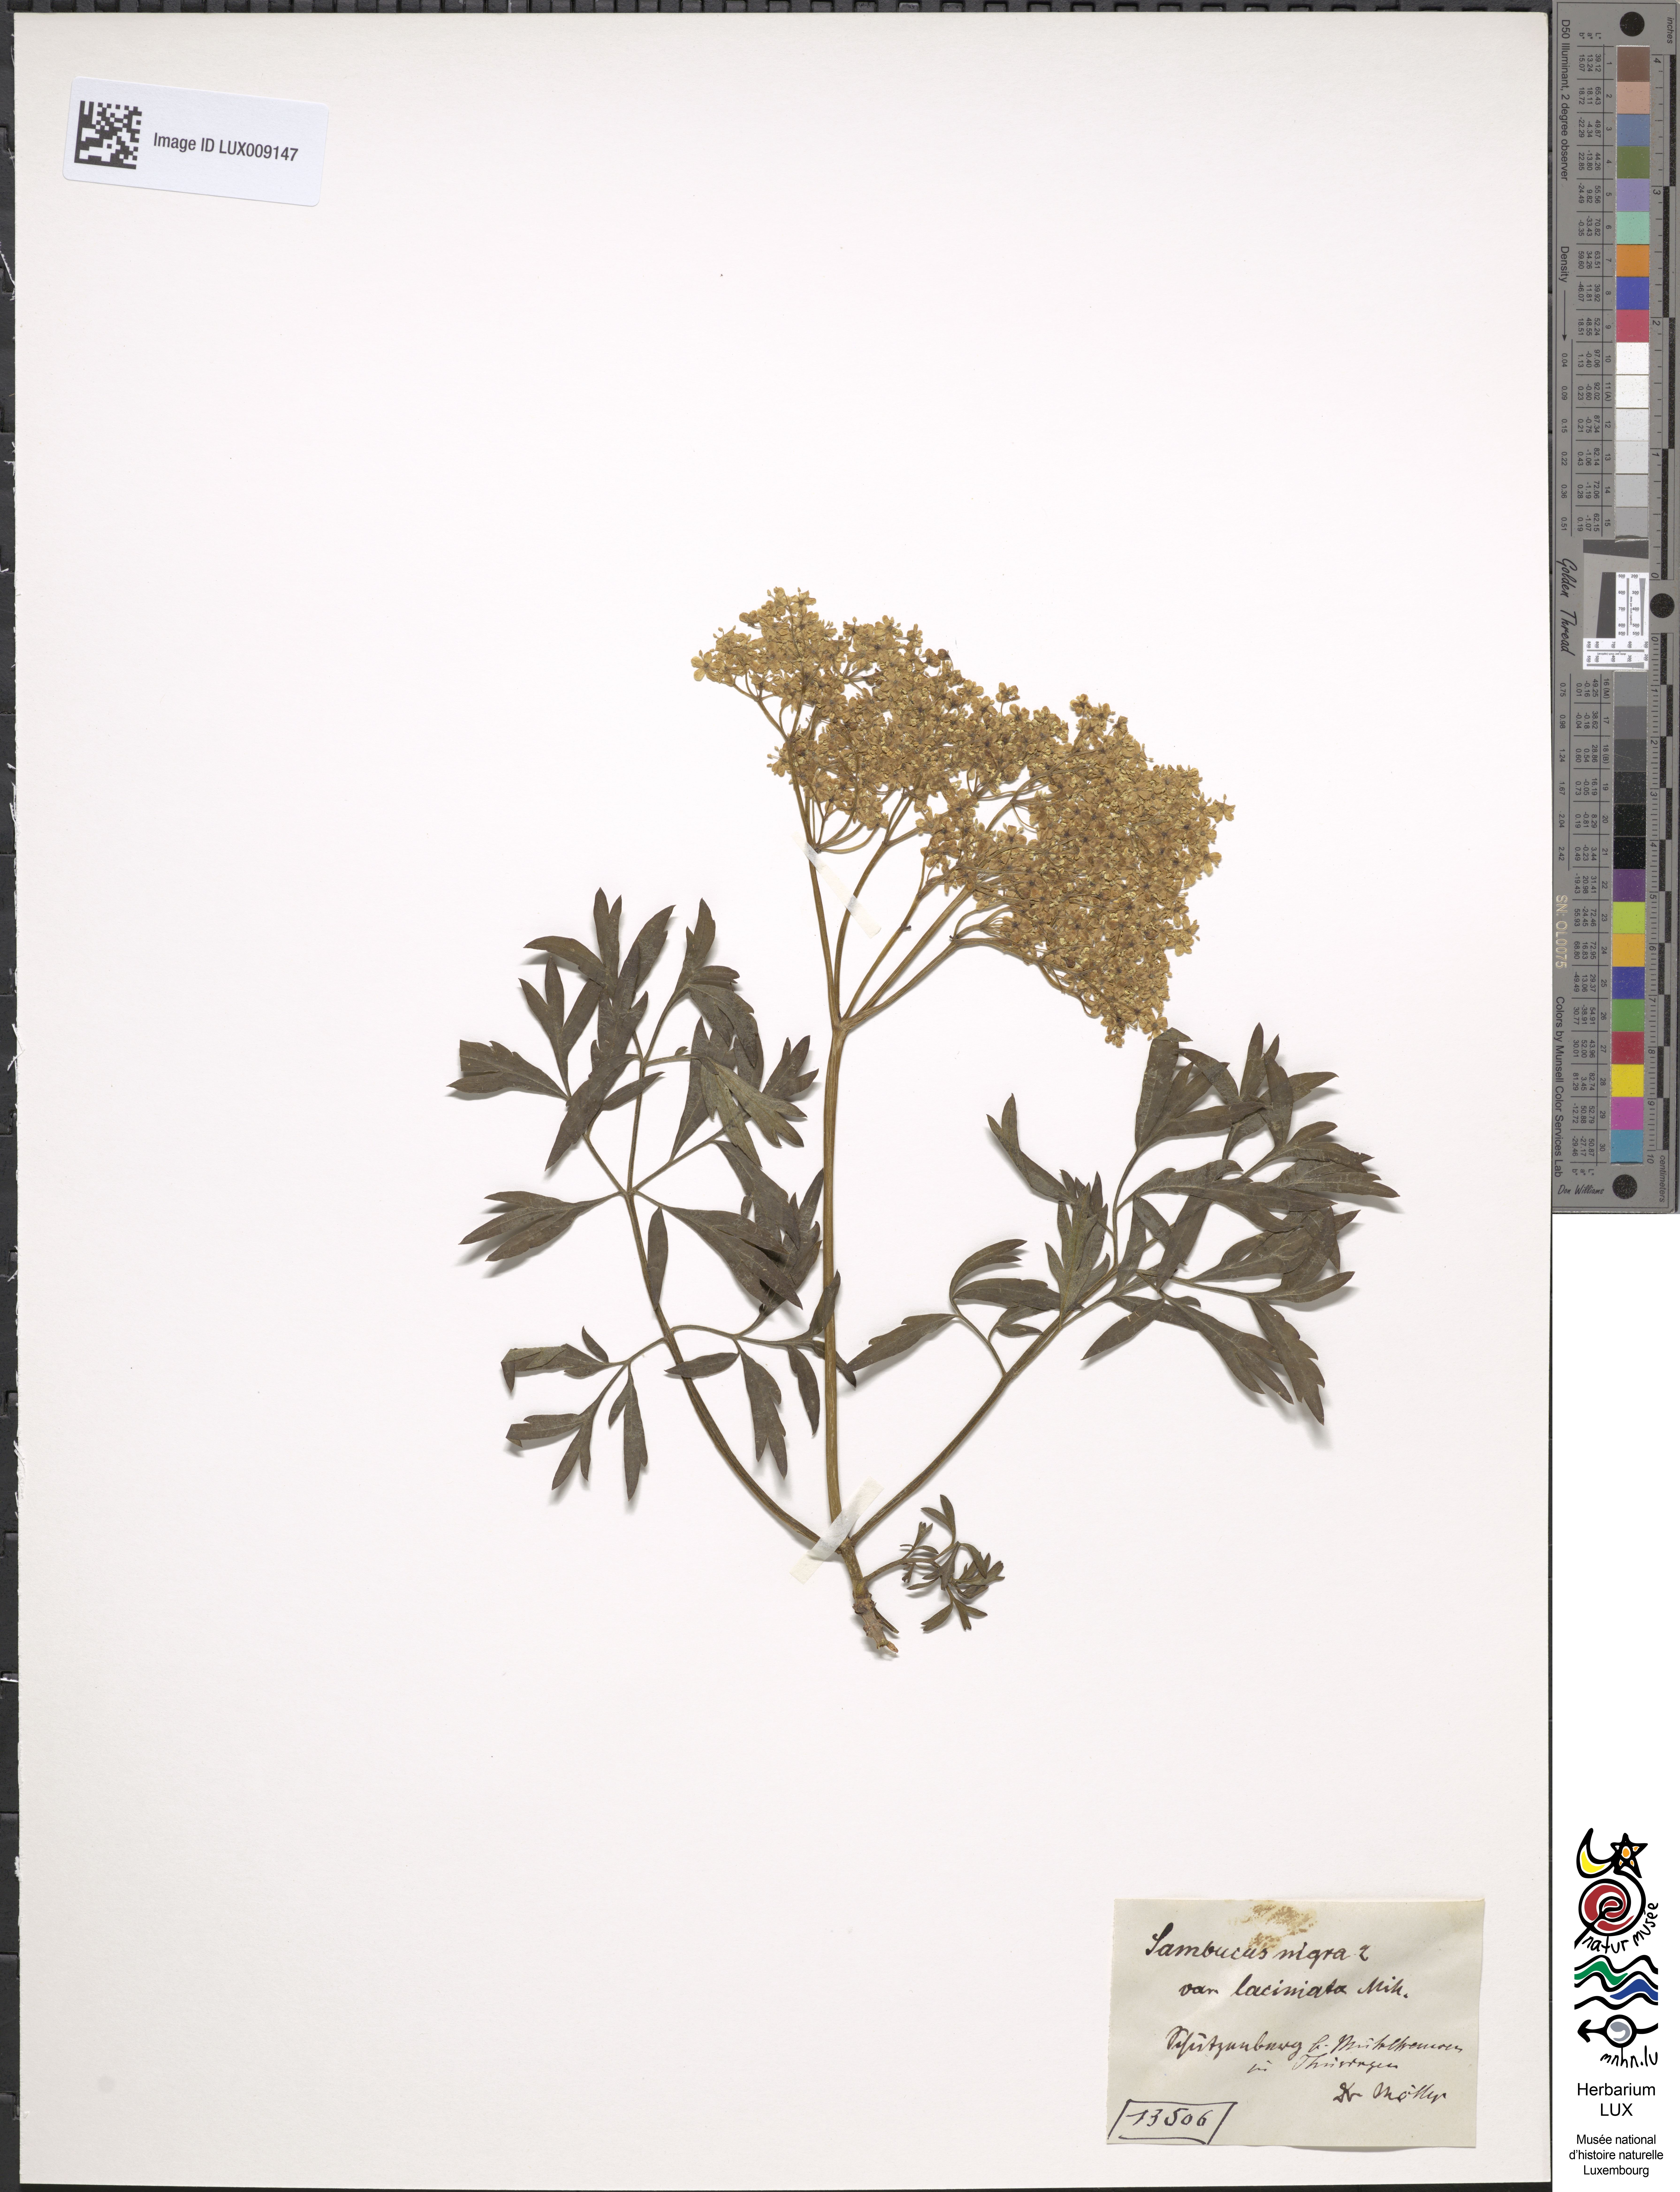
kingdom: Plantae
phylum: Tracheophyta
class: Magnoliopsida
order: Dipsacales
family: Viburnaceae
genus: Sambucus
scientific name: Sambucus nigra
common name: Elder
